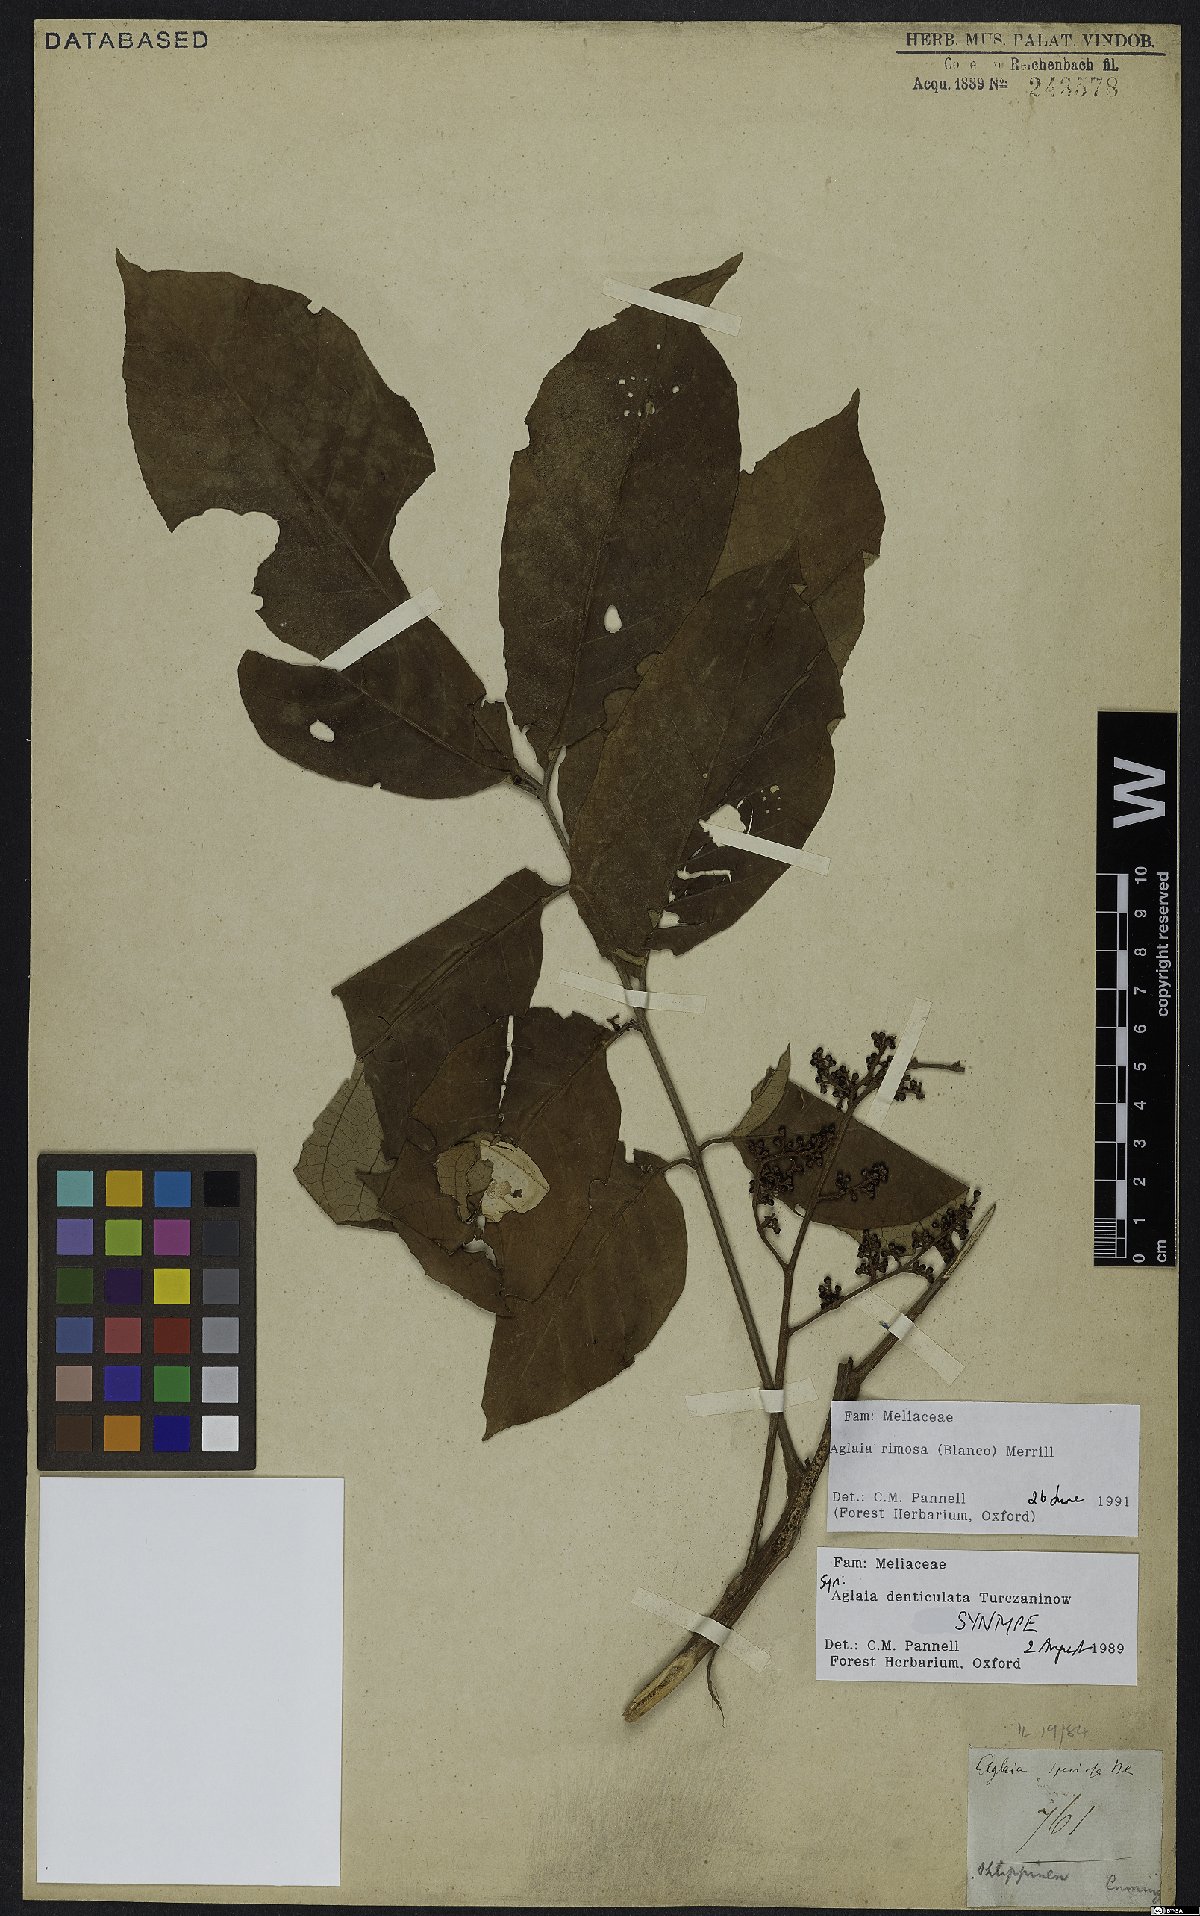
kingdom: Plantae
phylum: Tracheophyta
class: Magnoliopsida
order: Sapindales
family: Meliaceae
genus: Aglaia
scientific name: Aglaia rimosa
